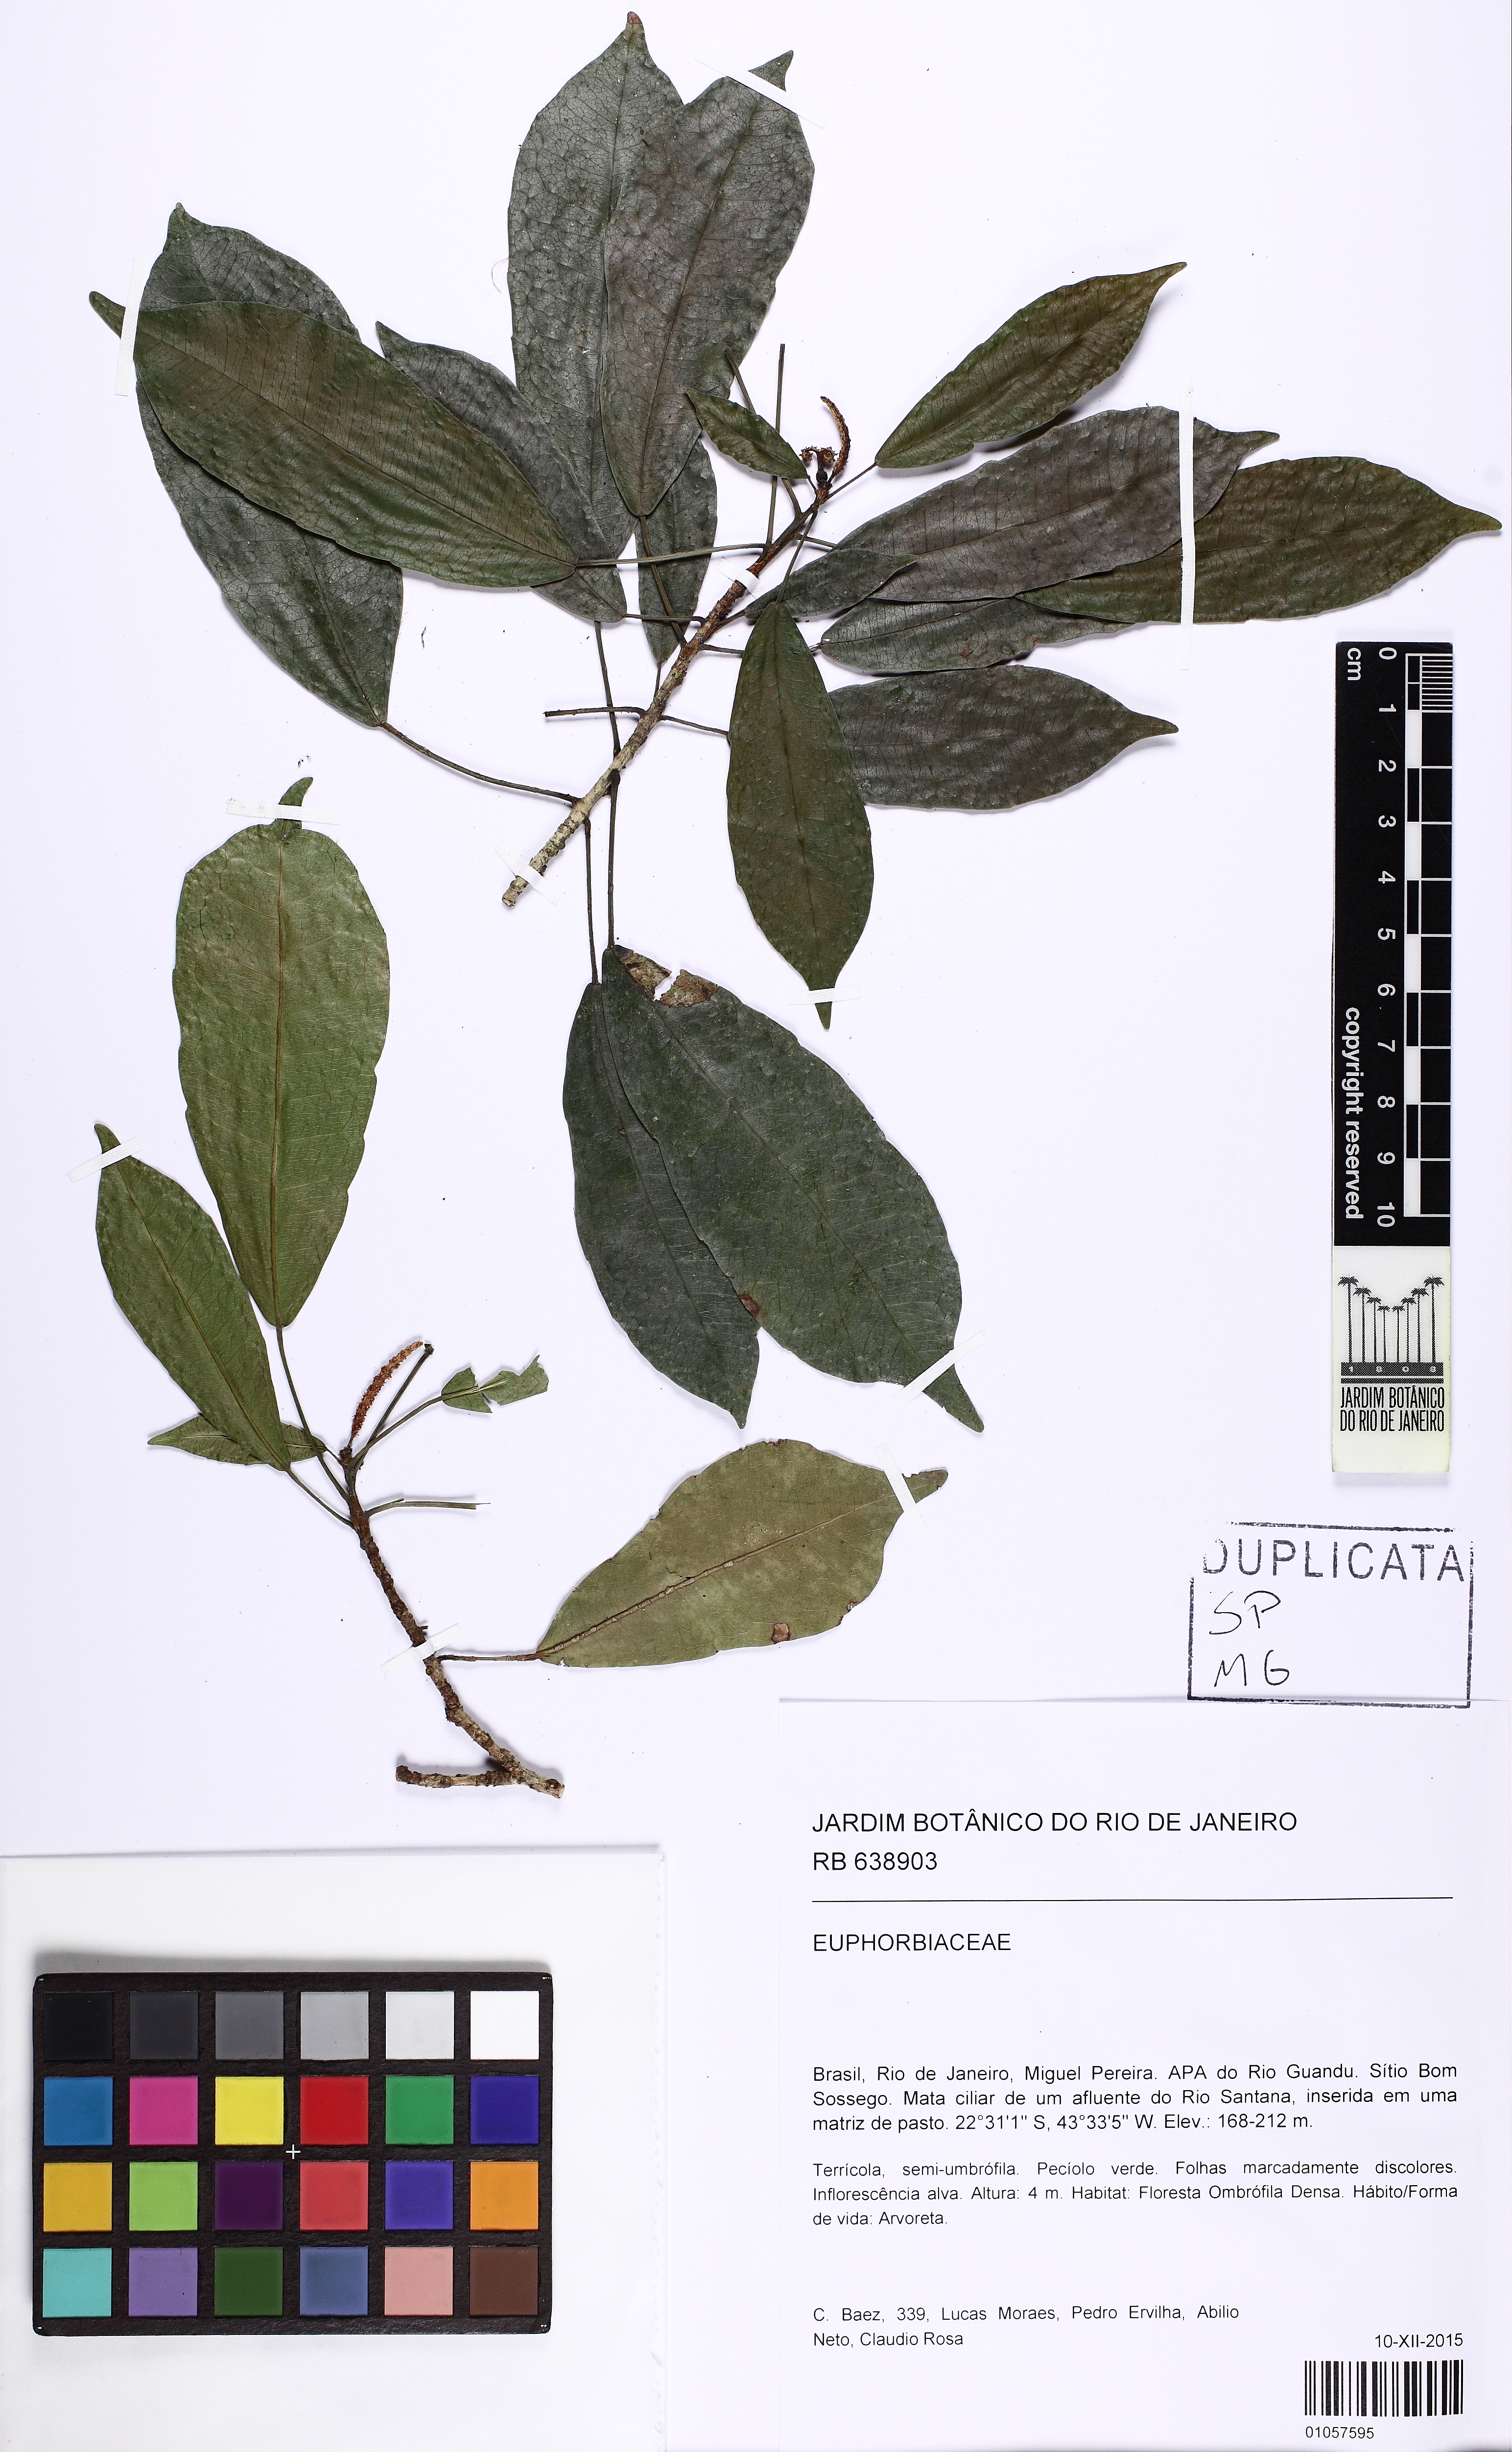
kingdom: Plantae
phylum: Tracheophyta
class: Magnoliopsida
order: Malpighiales
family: Euphorbiaceae
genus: Acalypha
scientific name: Acalypha
